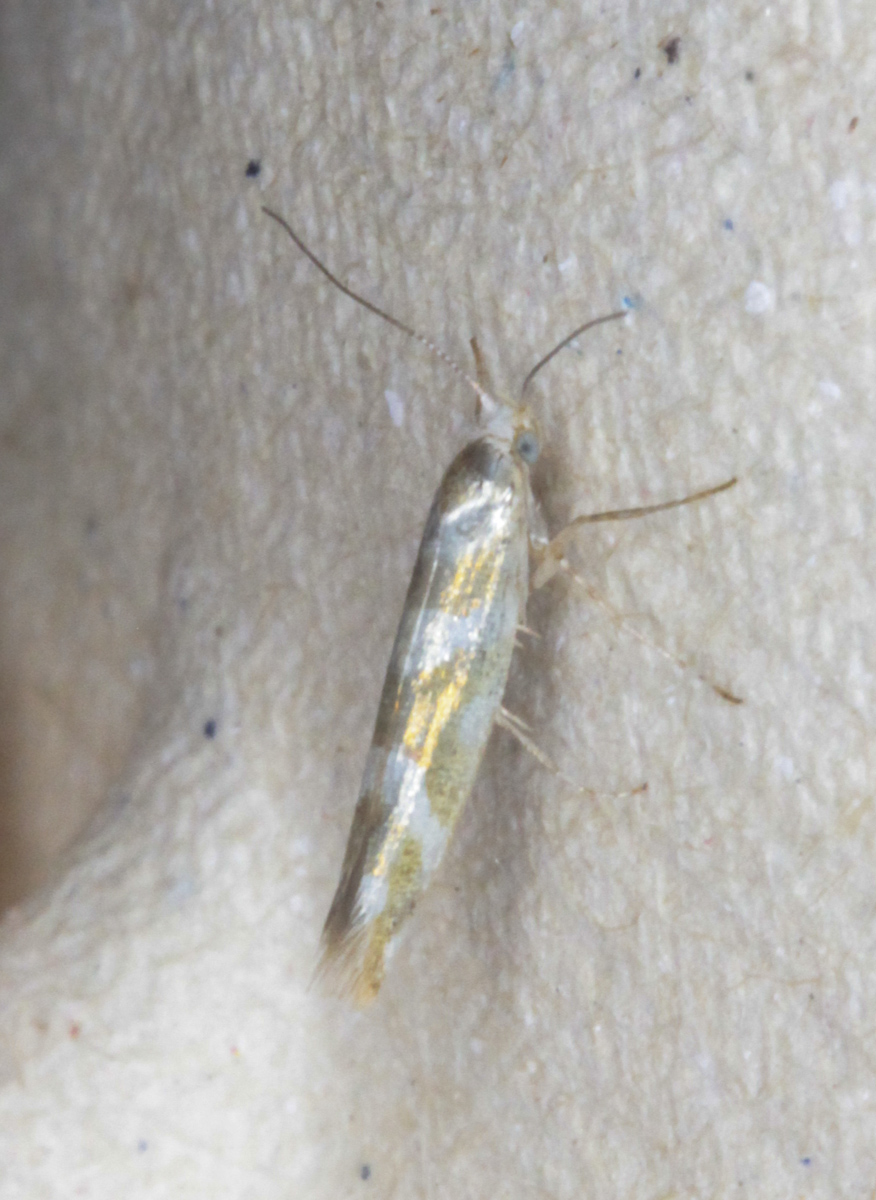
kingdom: Animalia
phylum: Arthropoda
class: Insecta
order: Lepidoptera
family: Argyresthiidae
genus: Argyresthia
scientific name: Argyresthia
